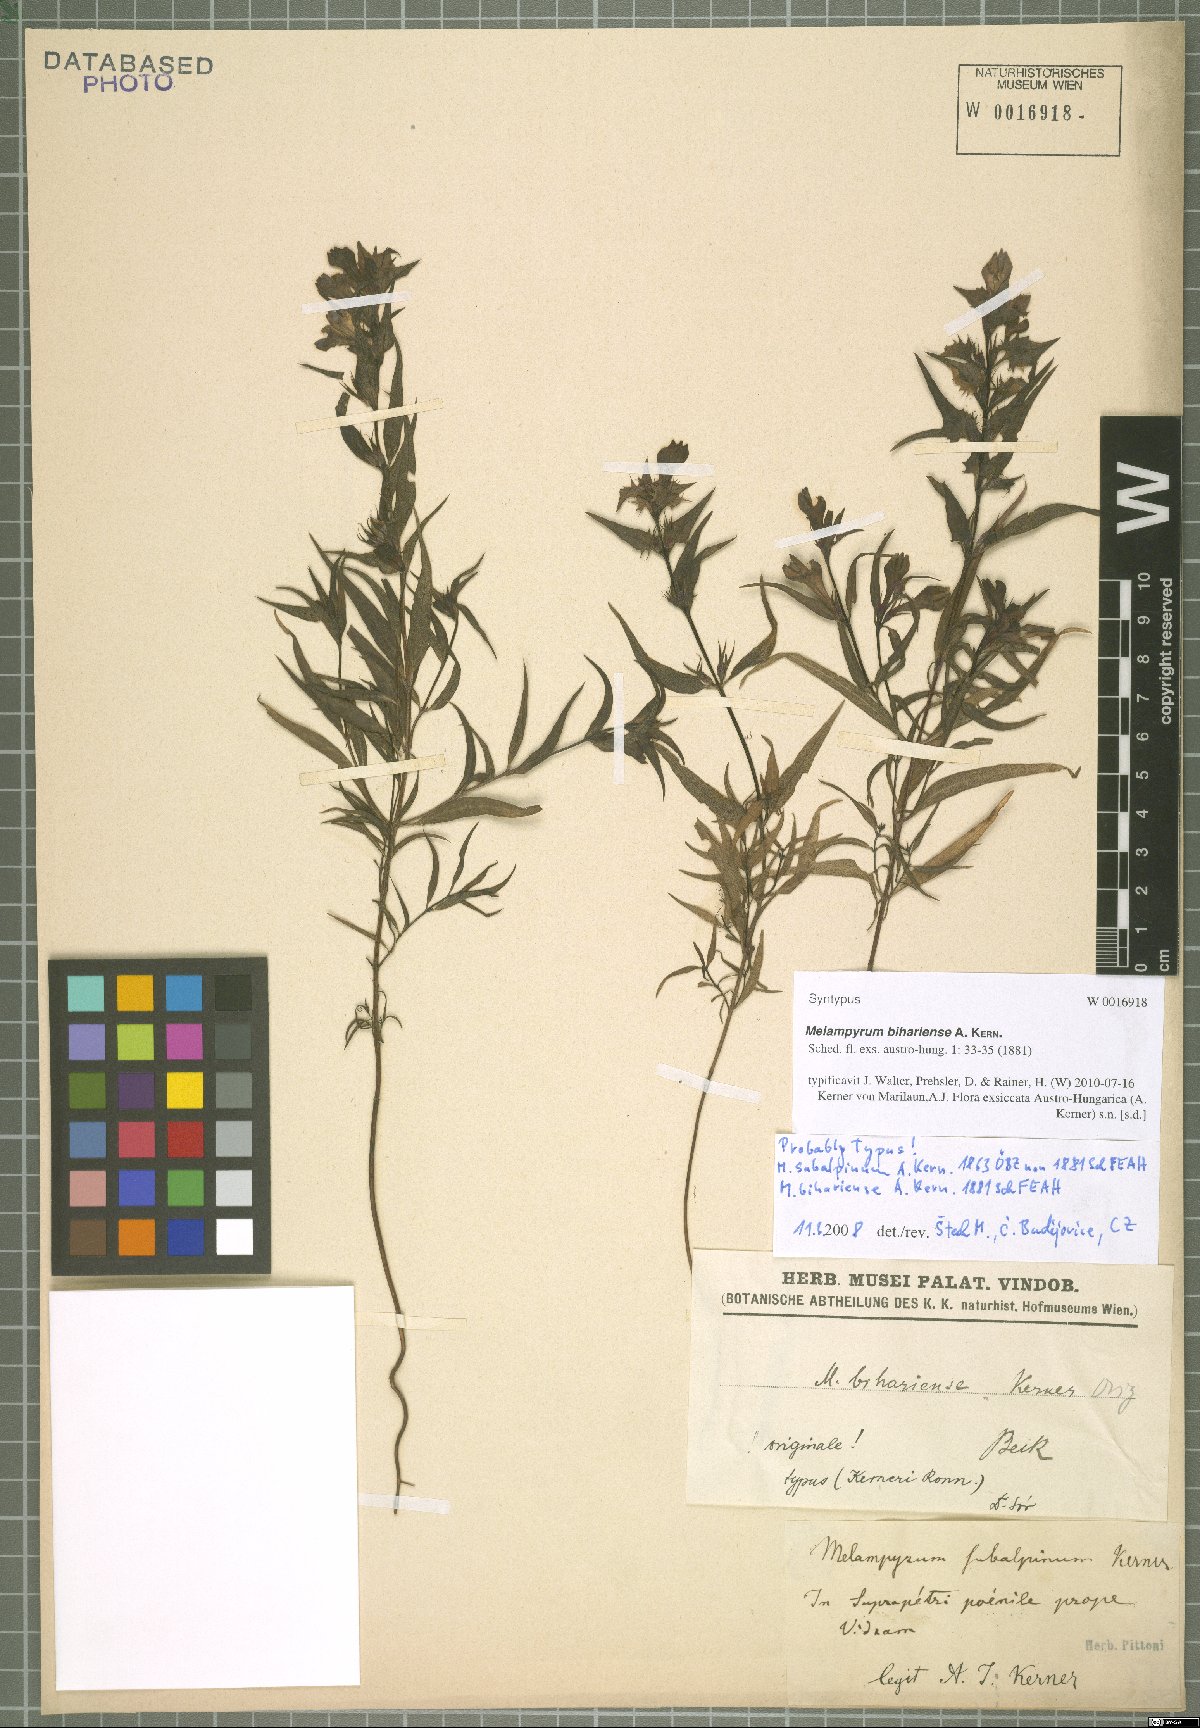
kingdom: Plantae
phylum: Tracheophyta
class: Magnoliopsida
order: Lamiales
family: Orobanchaceae
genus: Melampyrum
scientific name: Melampyrum bihariense
